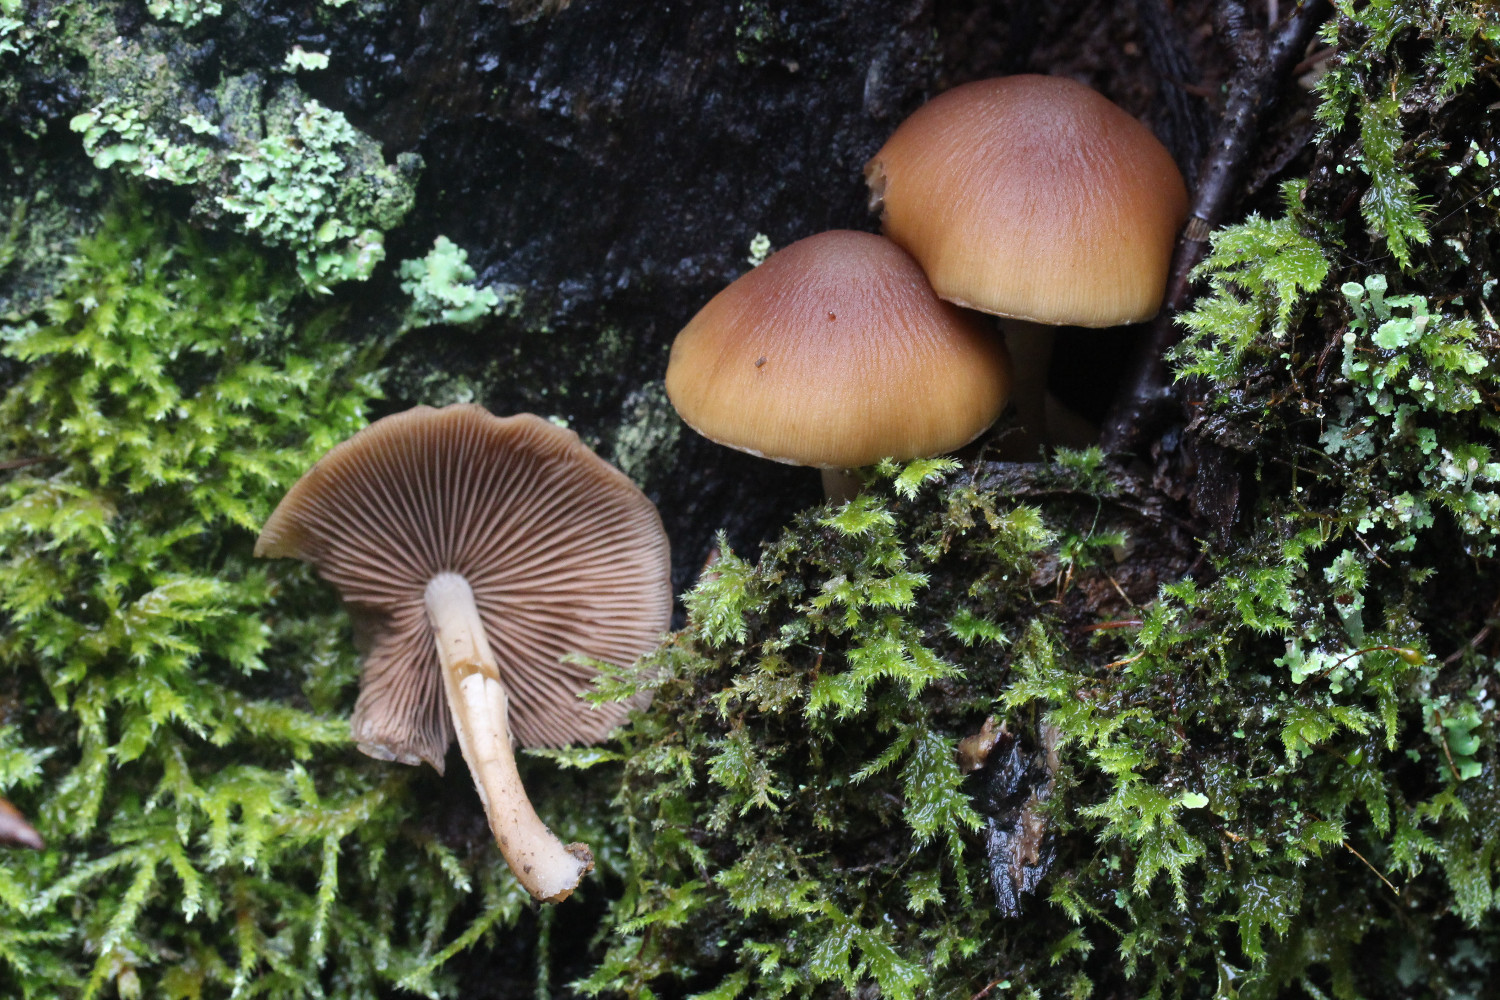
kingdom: Fungi
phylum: Basidiomycota
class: Agaricomycetes
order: Agaricales
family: Psathyrellaceae
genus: Psathyrella
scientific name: Psathyrella piluliformis
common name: lysstokket mørkhat
